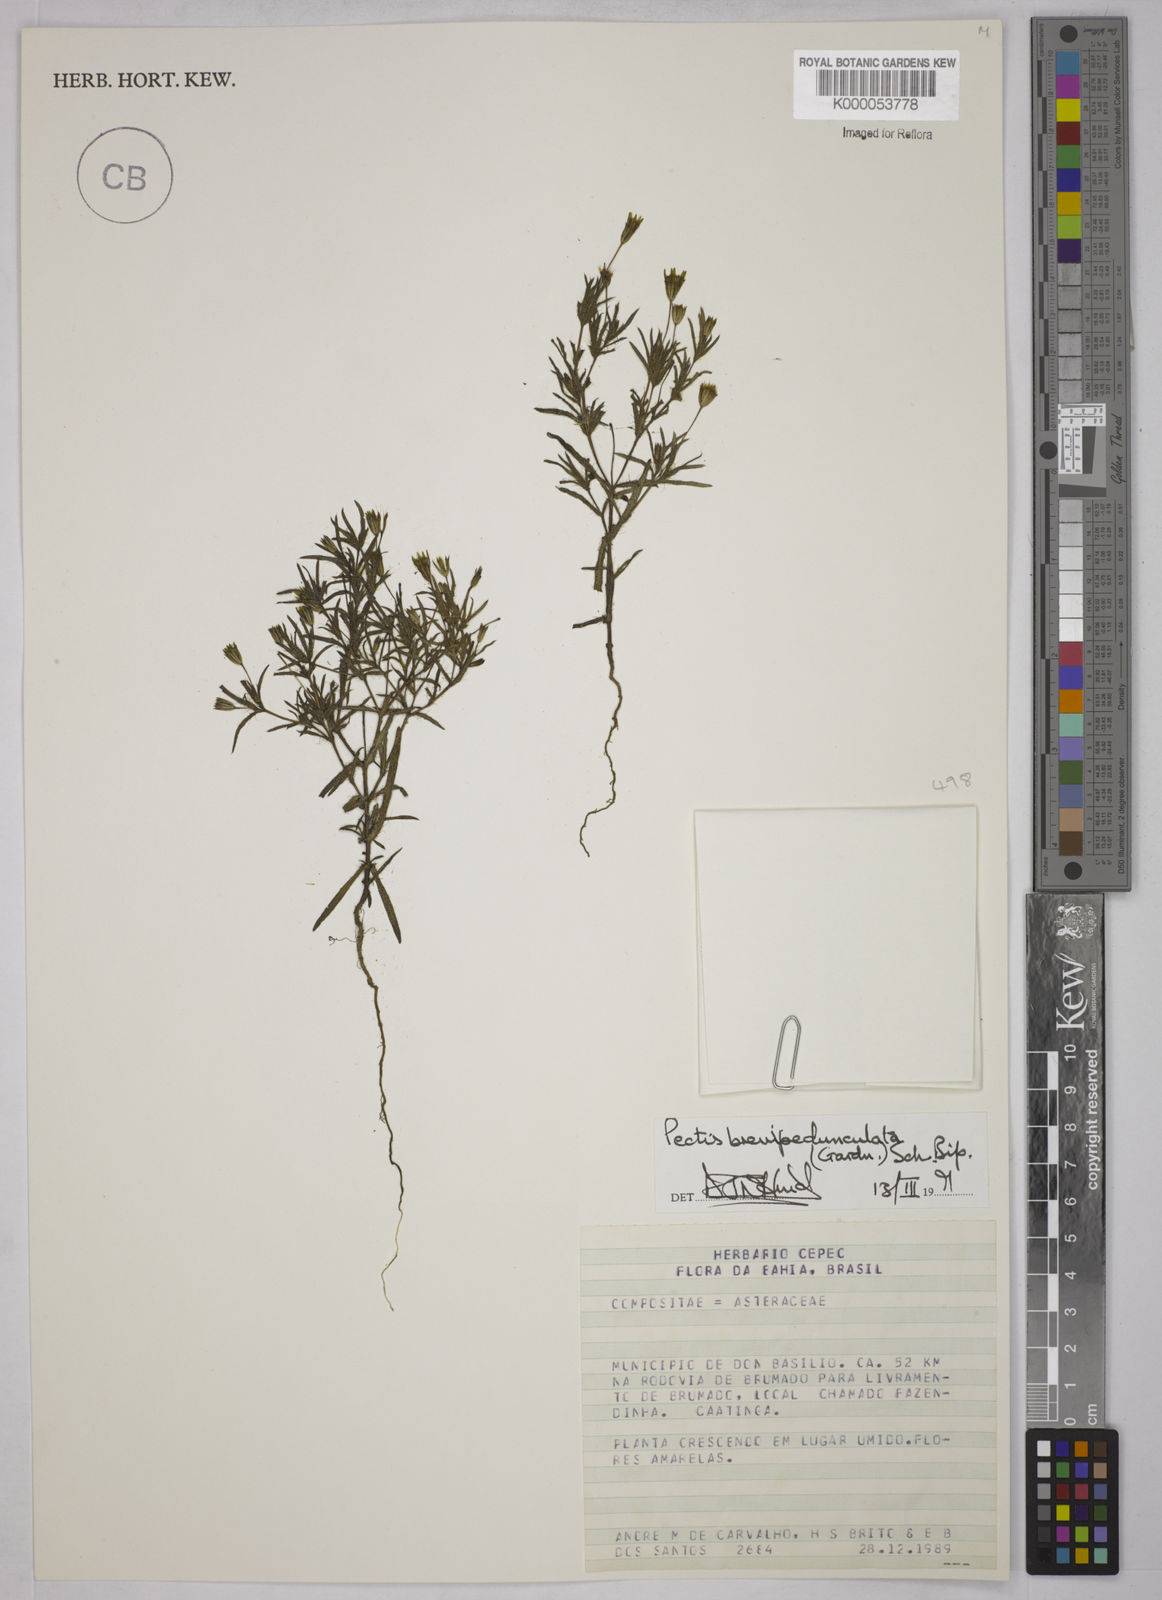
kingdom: Plantae
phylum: Tracheophyta
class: Magnoliopsida
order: Asterales
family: Asteraceae
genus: Pectis
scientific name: Pectis brevipedunculata
